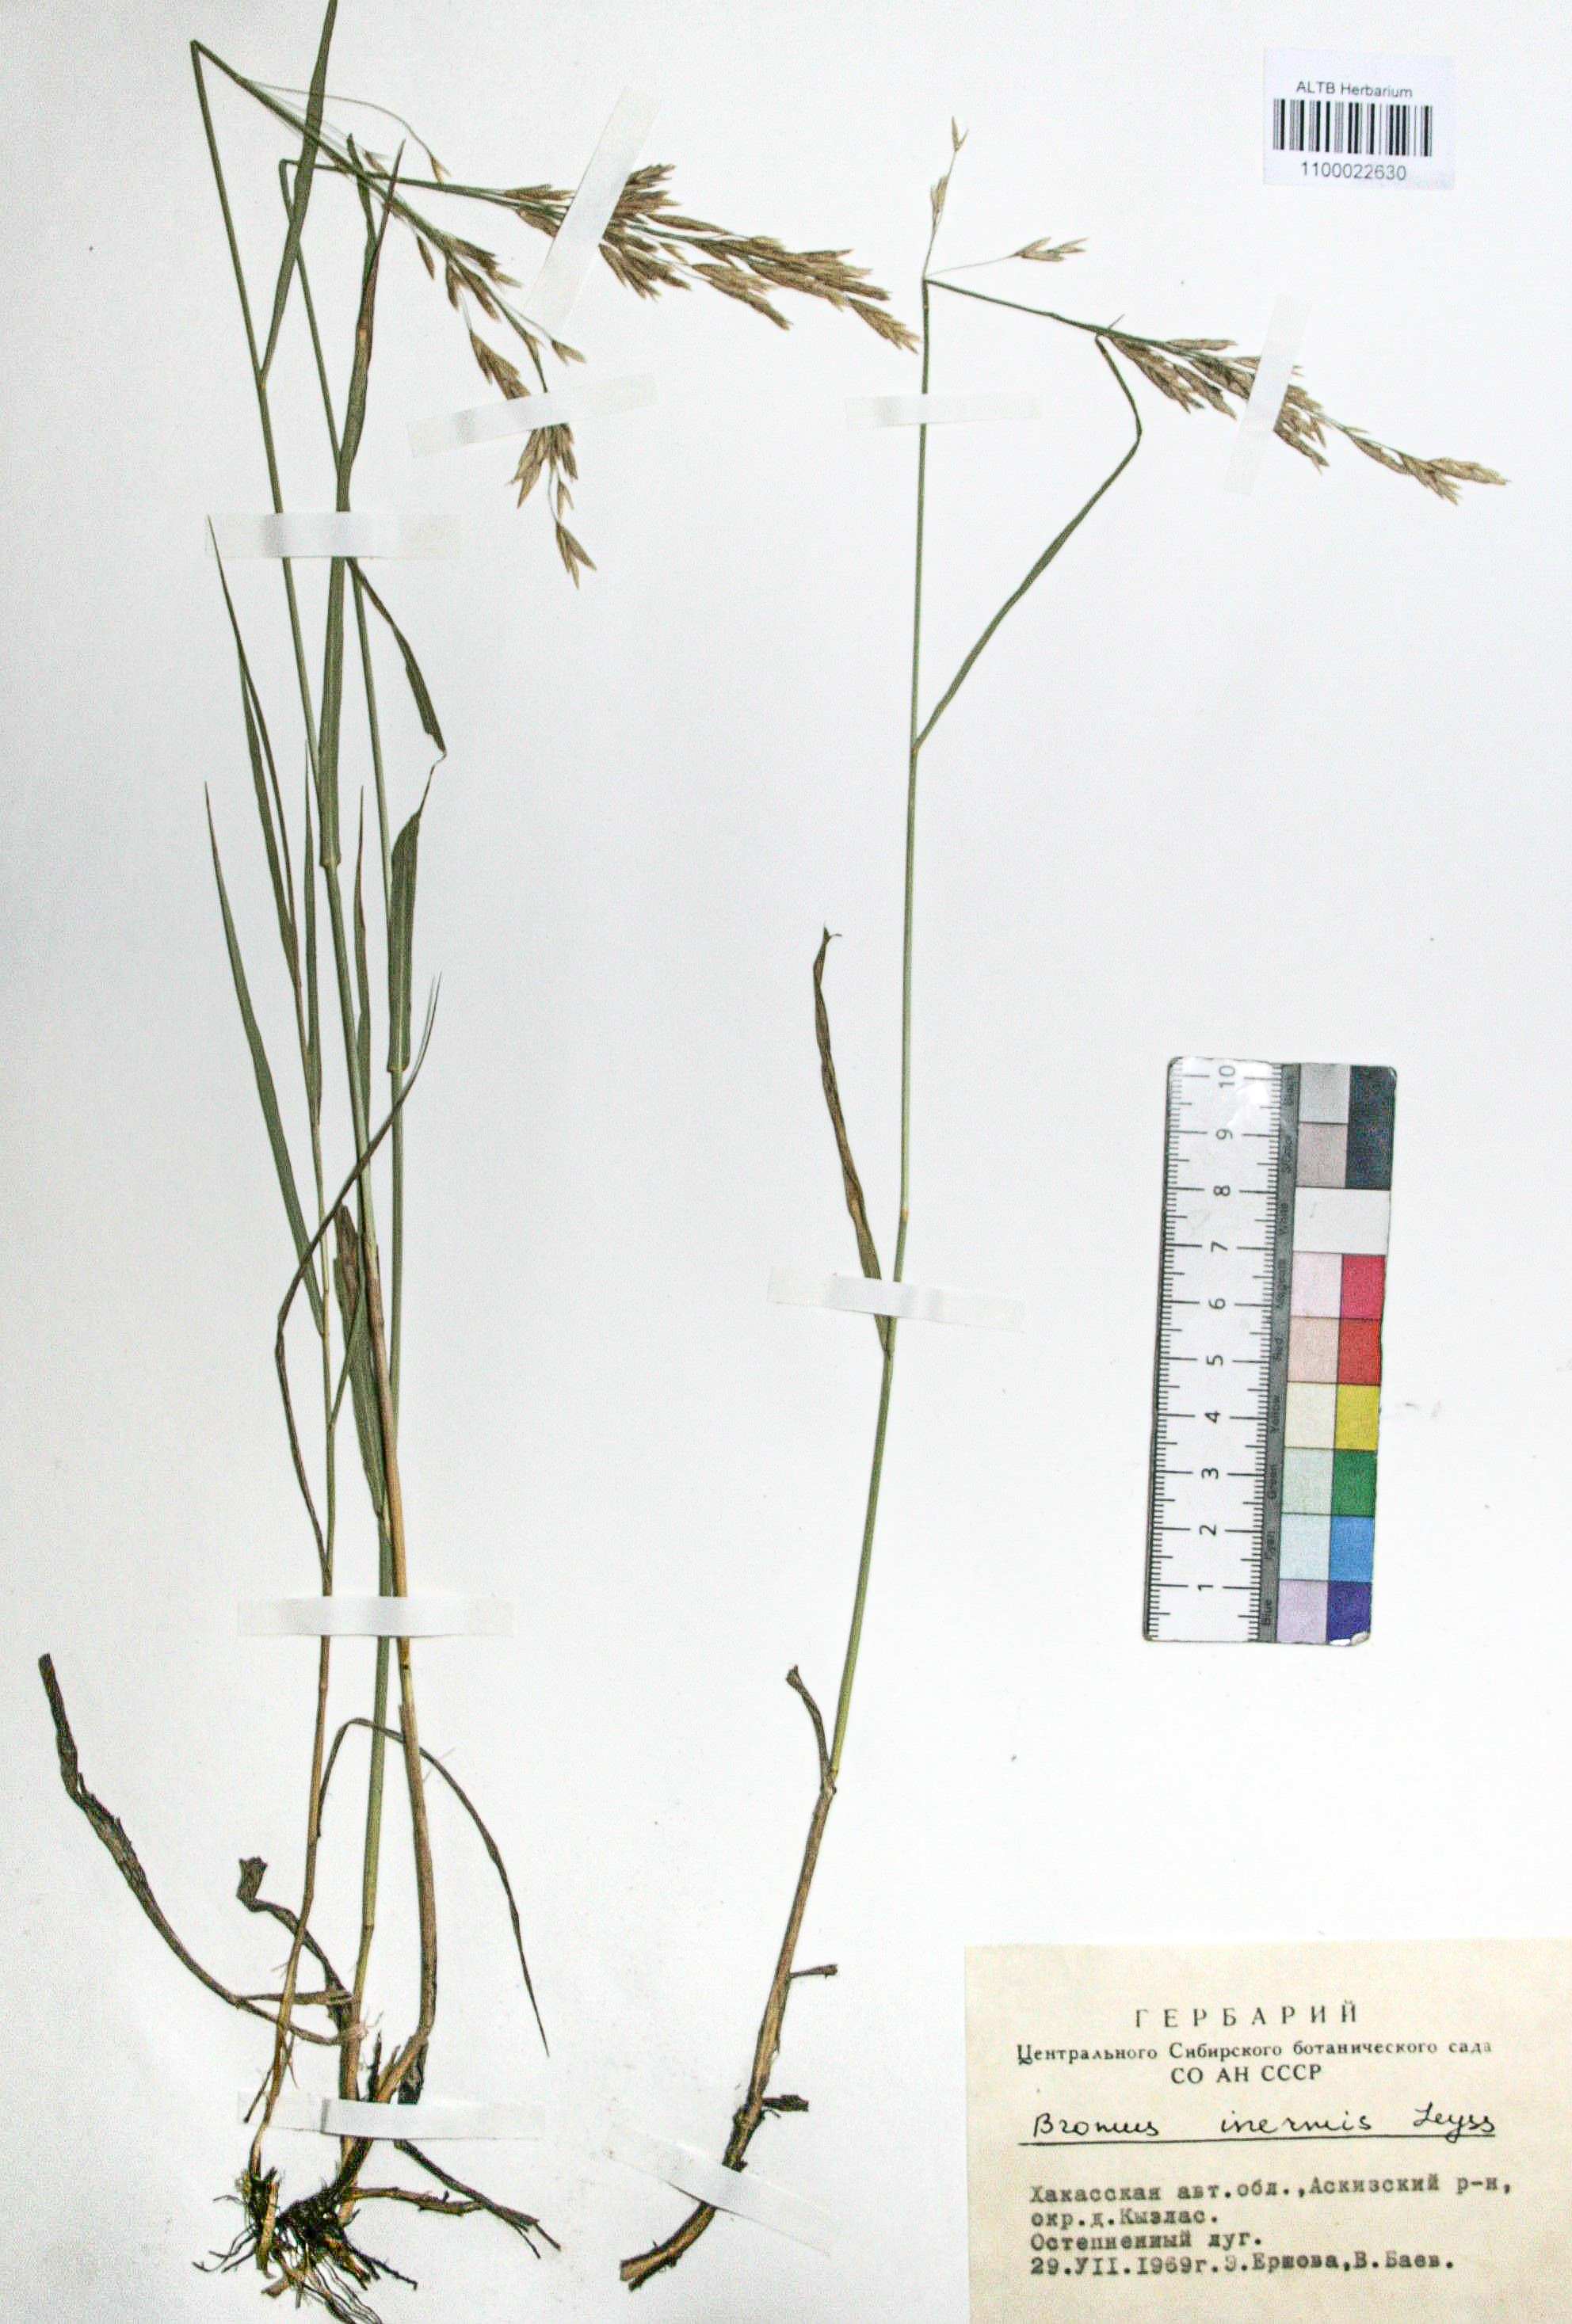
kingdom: Plantae
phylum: Tracheophyta
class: Liliopsida
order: Poales
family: Poaceae
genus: Bromus
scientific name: Bromus inermis
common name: Smooth brome
